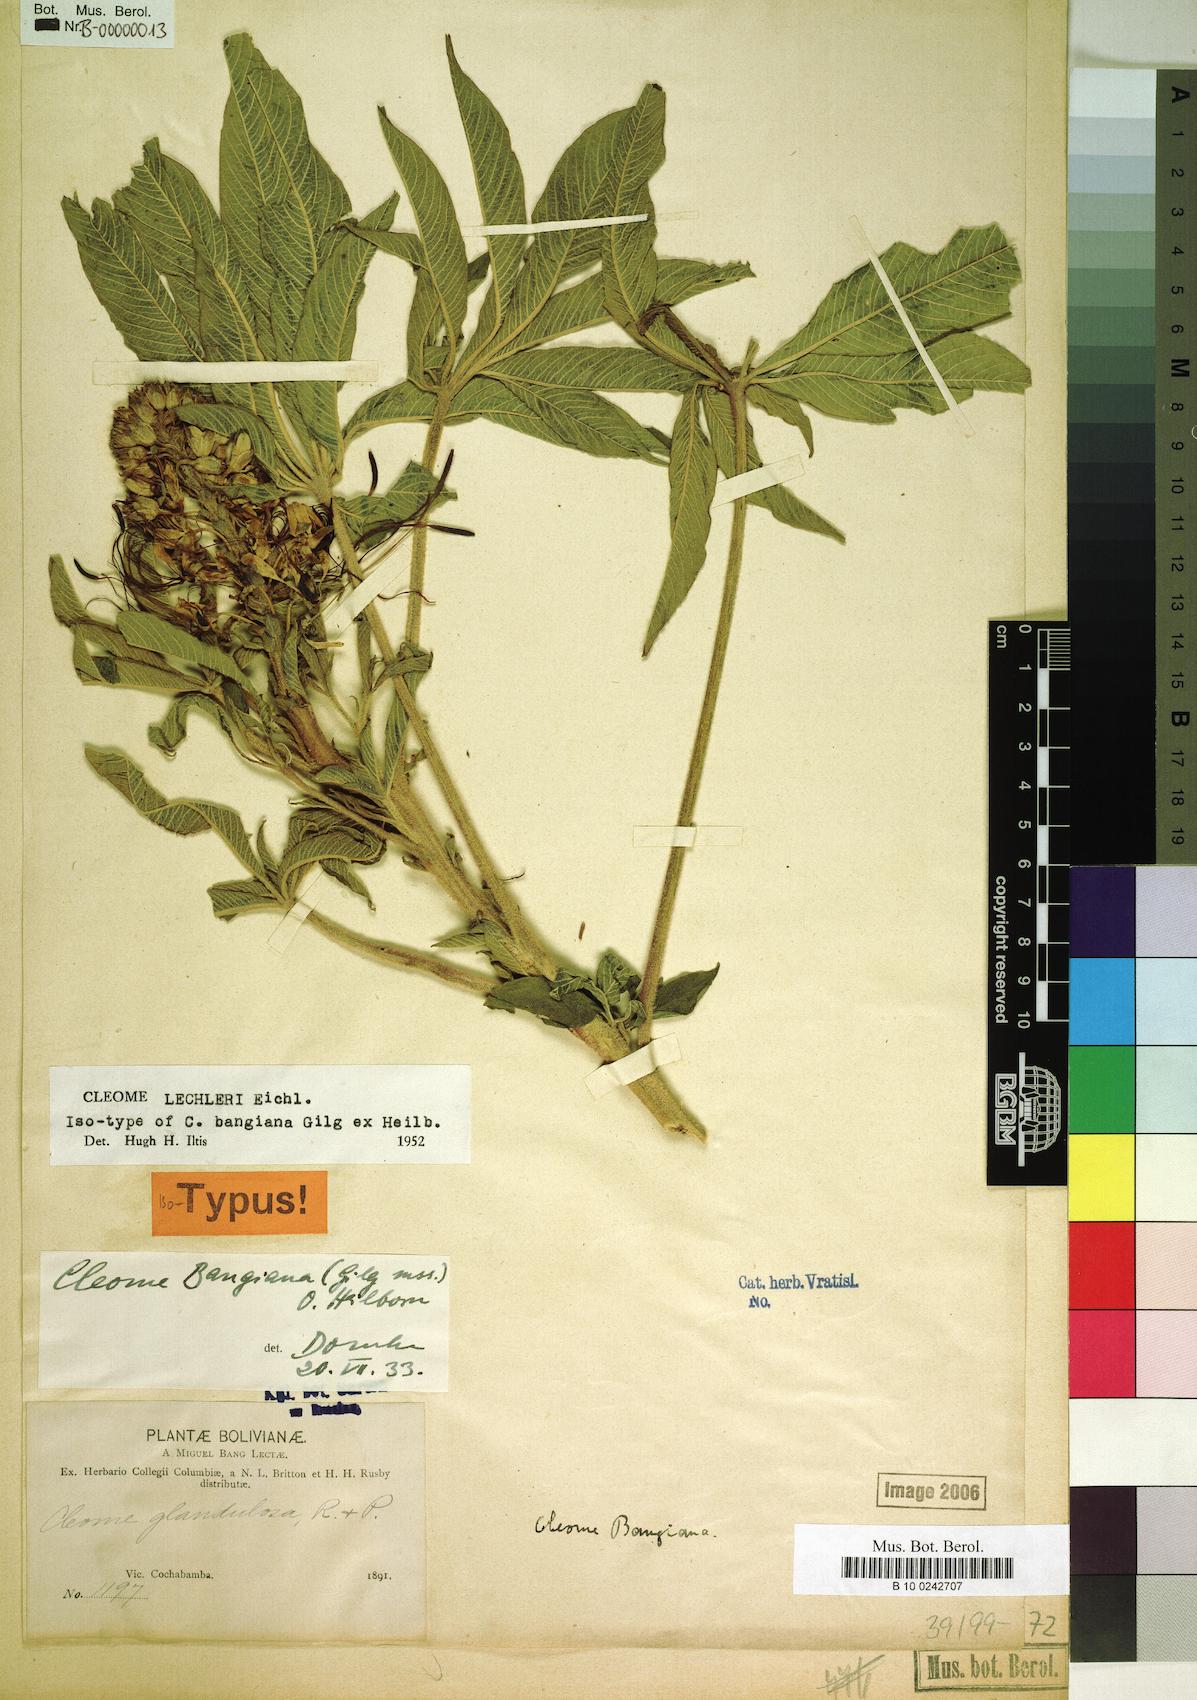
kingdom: Plantae
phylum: Tracheophyta
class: Magnoliopsida
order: Brassicales
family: Cleomaceae
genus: Andinocleome
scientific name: Andinocleome lechleri
